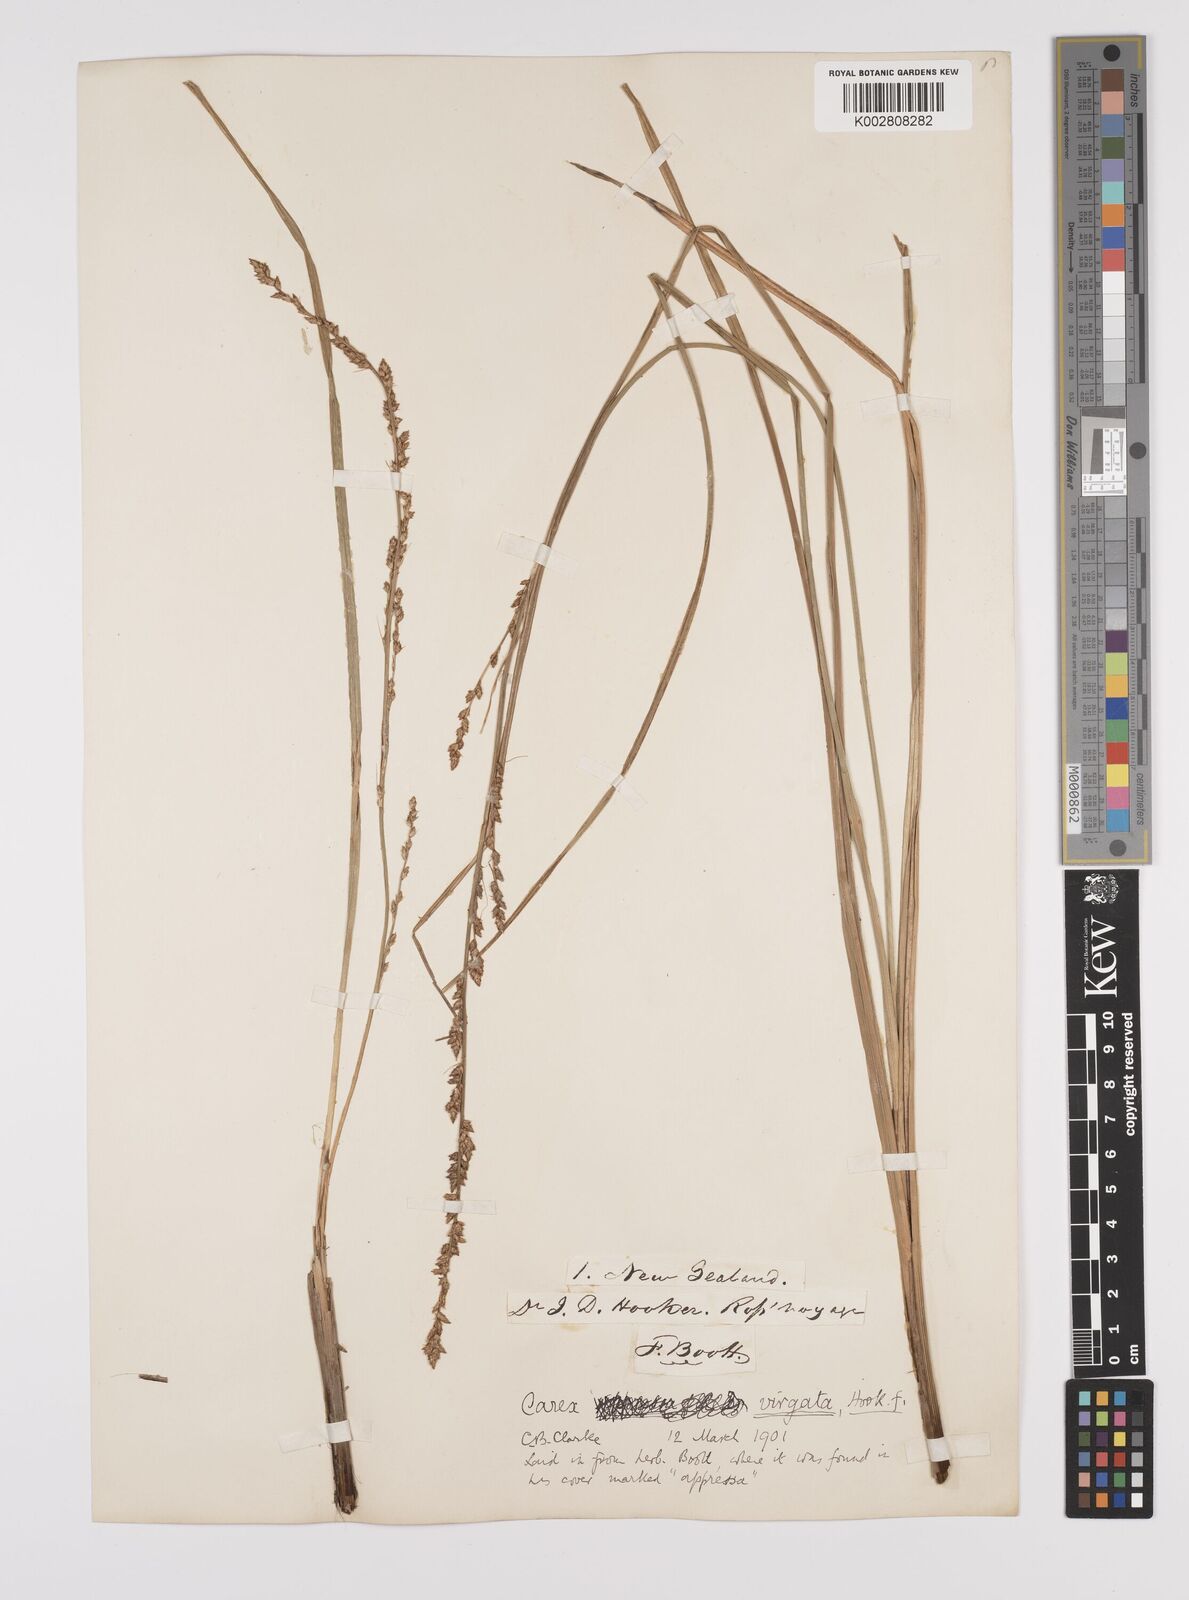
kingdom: Plantae
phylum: Tracheophyta
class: Liliopsida
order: Poales
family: Cyperaceae
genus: Carex
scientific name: Carex appressa
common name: Tussock sedge
